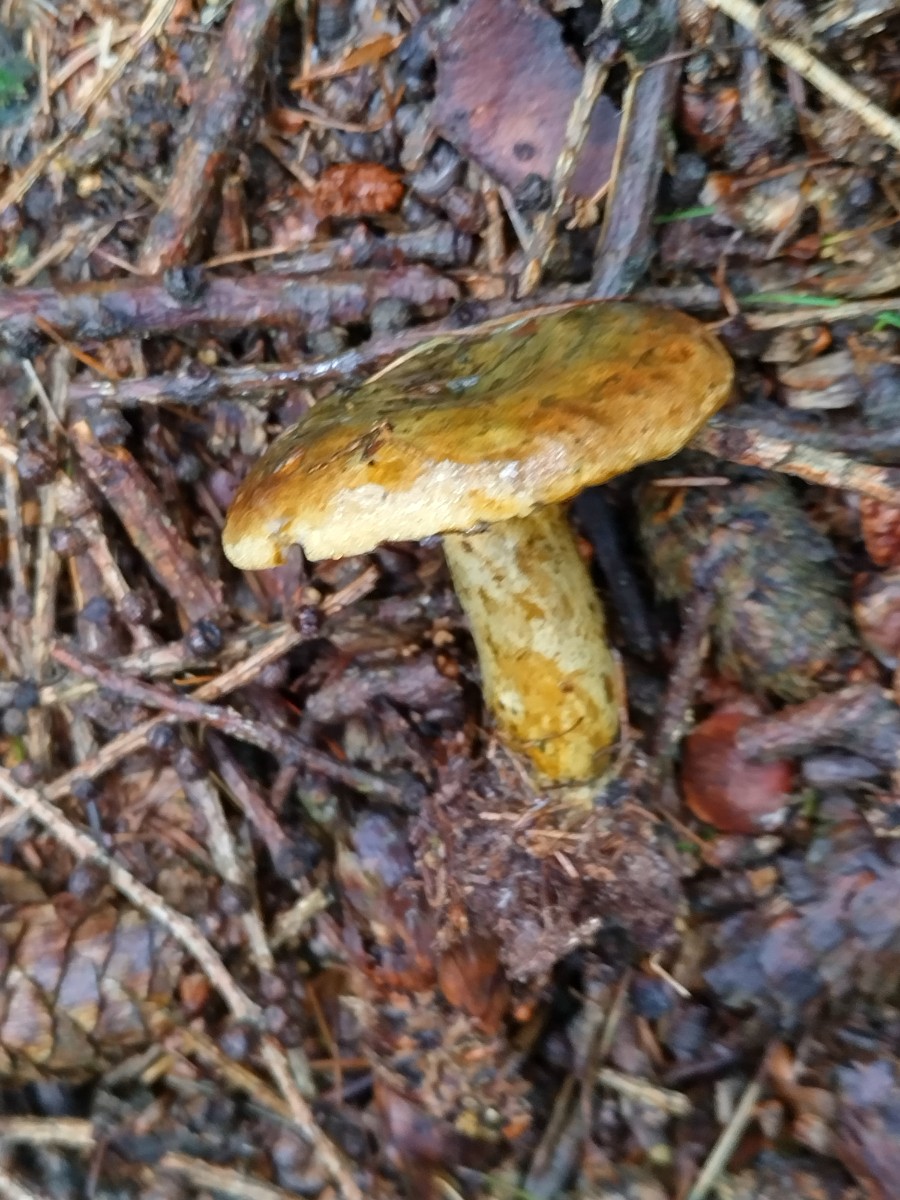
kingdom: Fungi
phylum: Basidiomycota
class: Agaricomycetes
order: Russulales
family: Russulaceae
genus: Lactarius
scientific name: Lactarius necator
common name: manddraber-mælkehat
